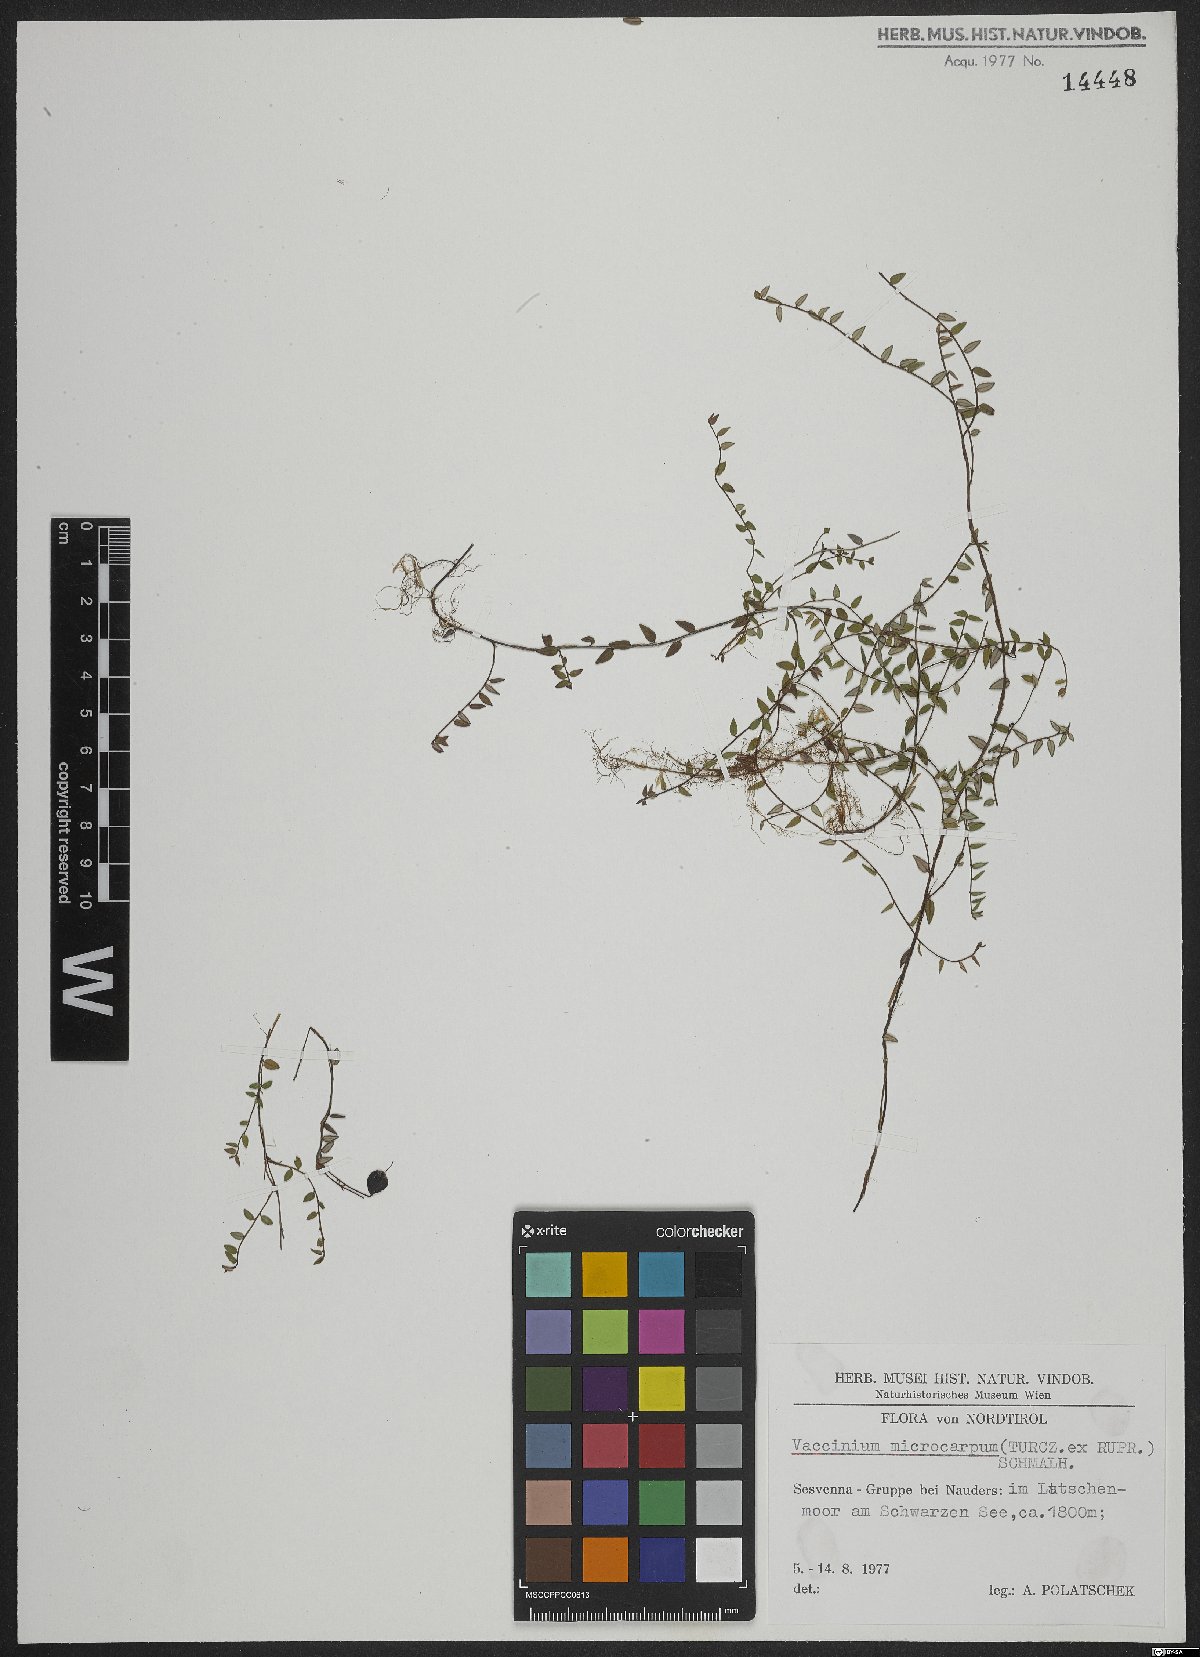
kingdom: Plantae
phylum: Tracheophyta
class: Magnoliopsida
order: Ericales
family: Ericaceae
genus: Vaccinium
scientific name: Vaccinium microcarpum
